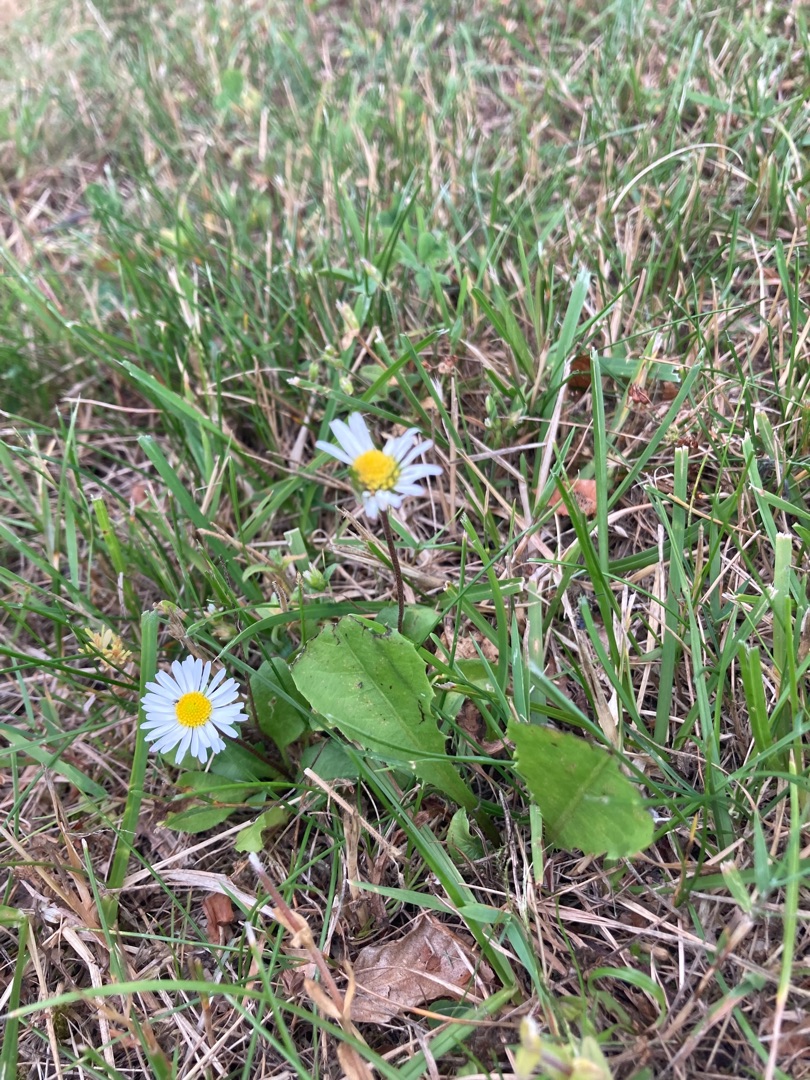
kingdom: Plantae
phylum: Tracheophyta
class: Magnoliopsida
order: Asterales
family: Asteraceae
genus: Bellis
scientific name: Bellis perennis
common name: Tusindfryd
